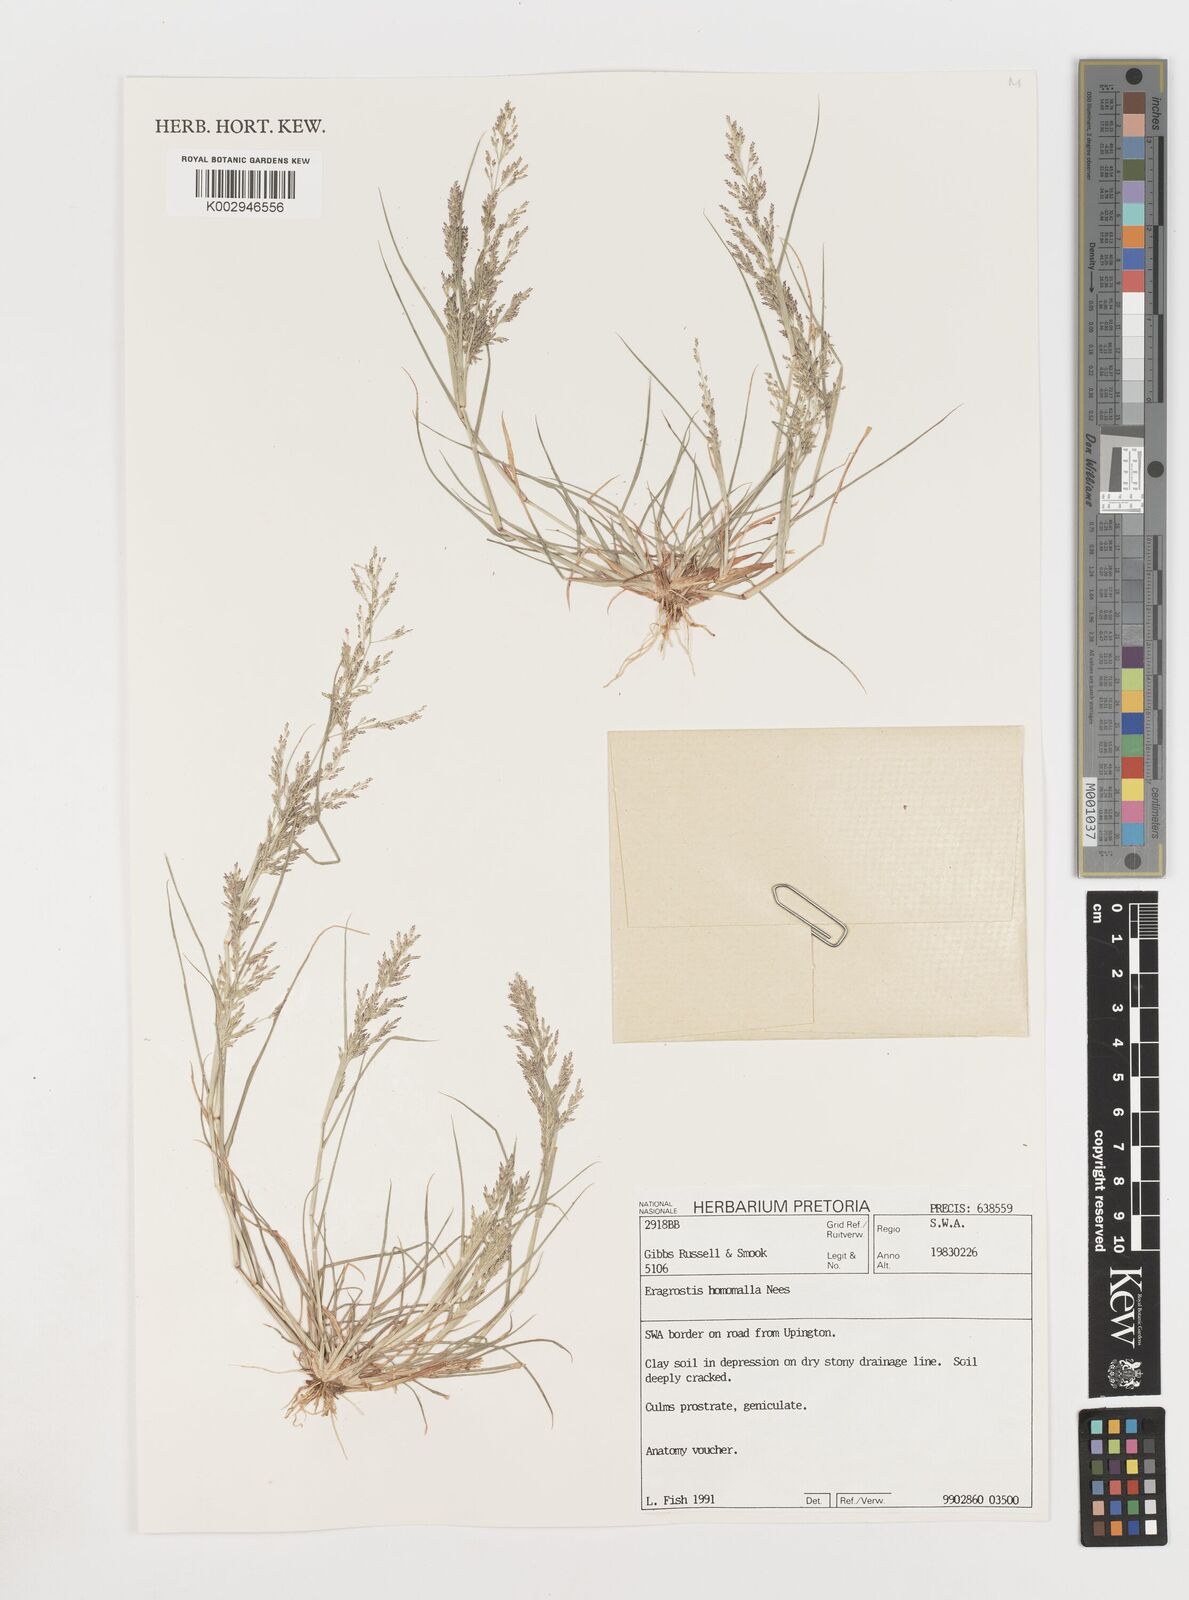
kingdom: Plantae
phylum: Tracheophyta
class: Liliopsida
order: Poales
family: Poaceae
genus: Eragrostis
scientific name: Eragrostis homomalla
